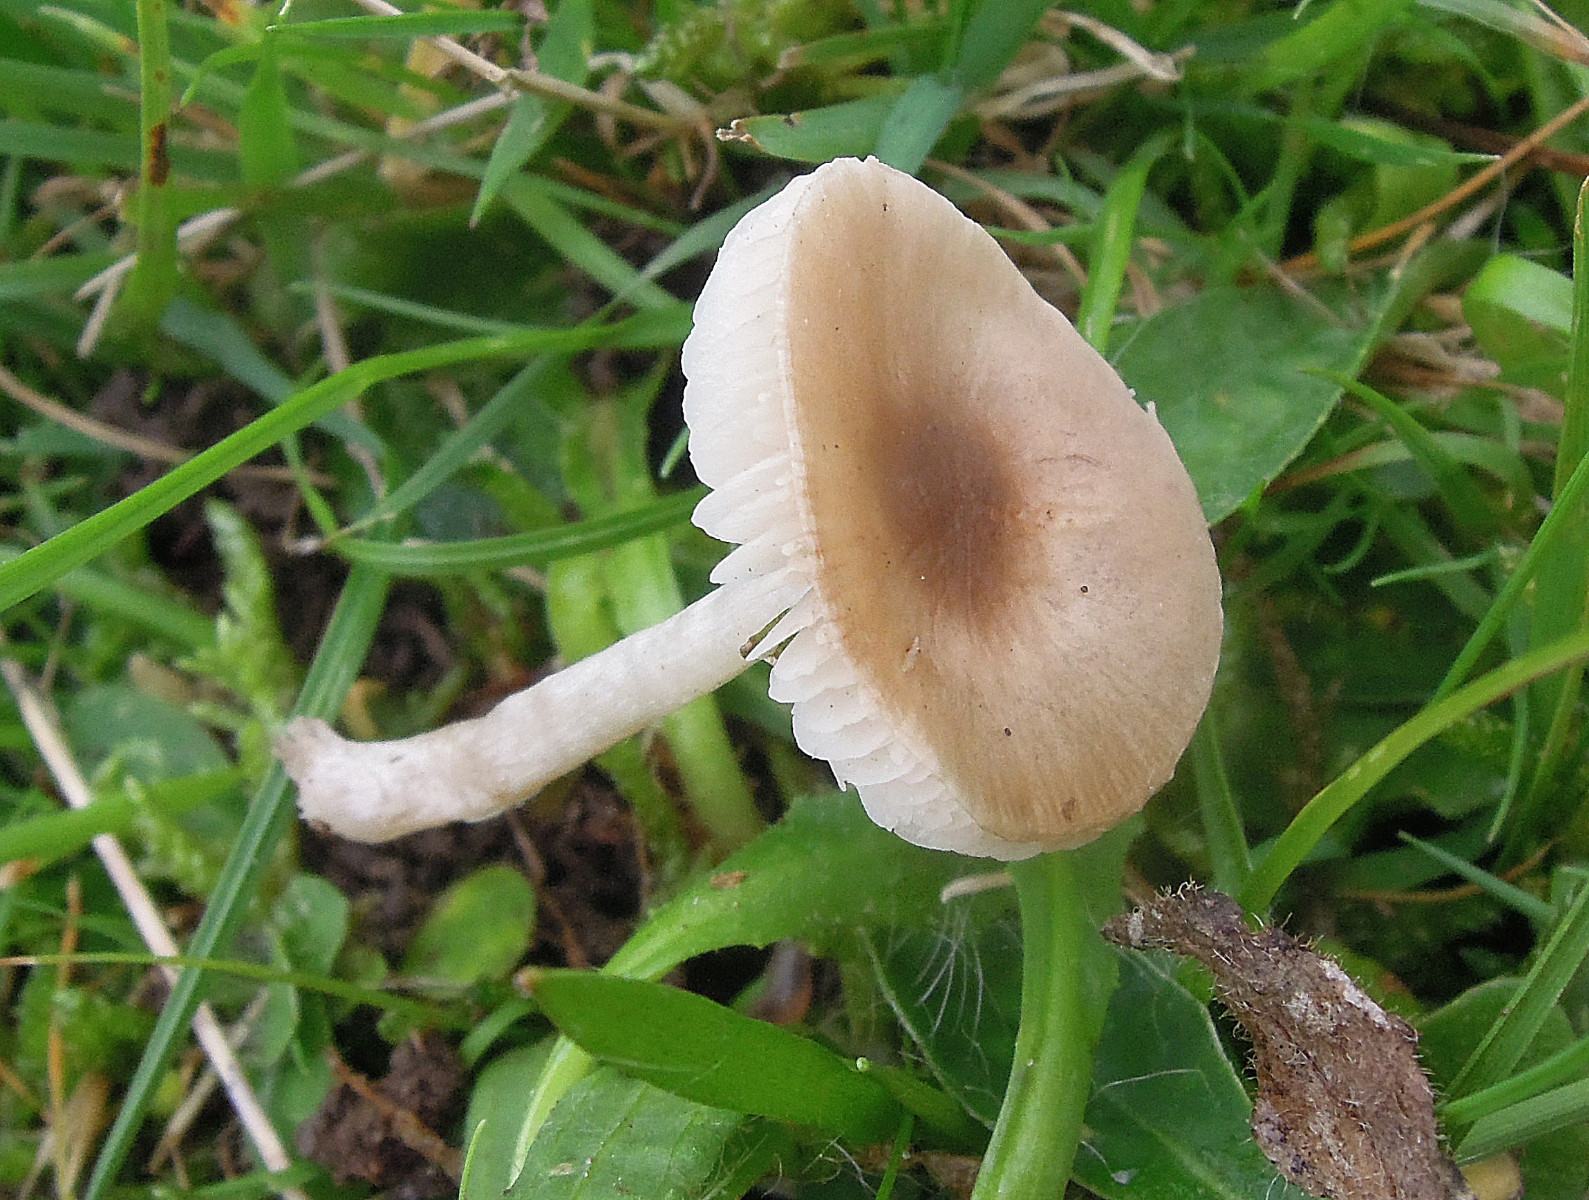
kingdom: Fungi
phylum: Basidiomycota
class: Agaricomycetes
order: Agaricales
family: Tricholomataceae
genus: Dermoloma
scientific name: Dermoloma cuneifolium
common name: eng-nonnehat
